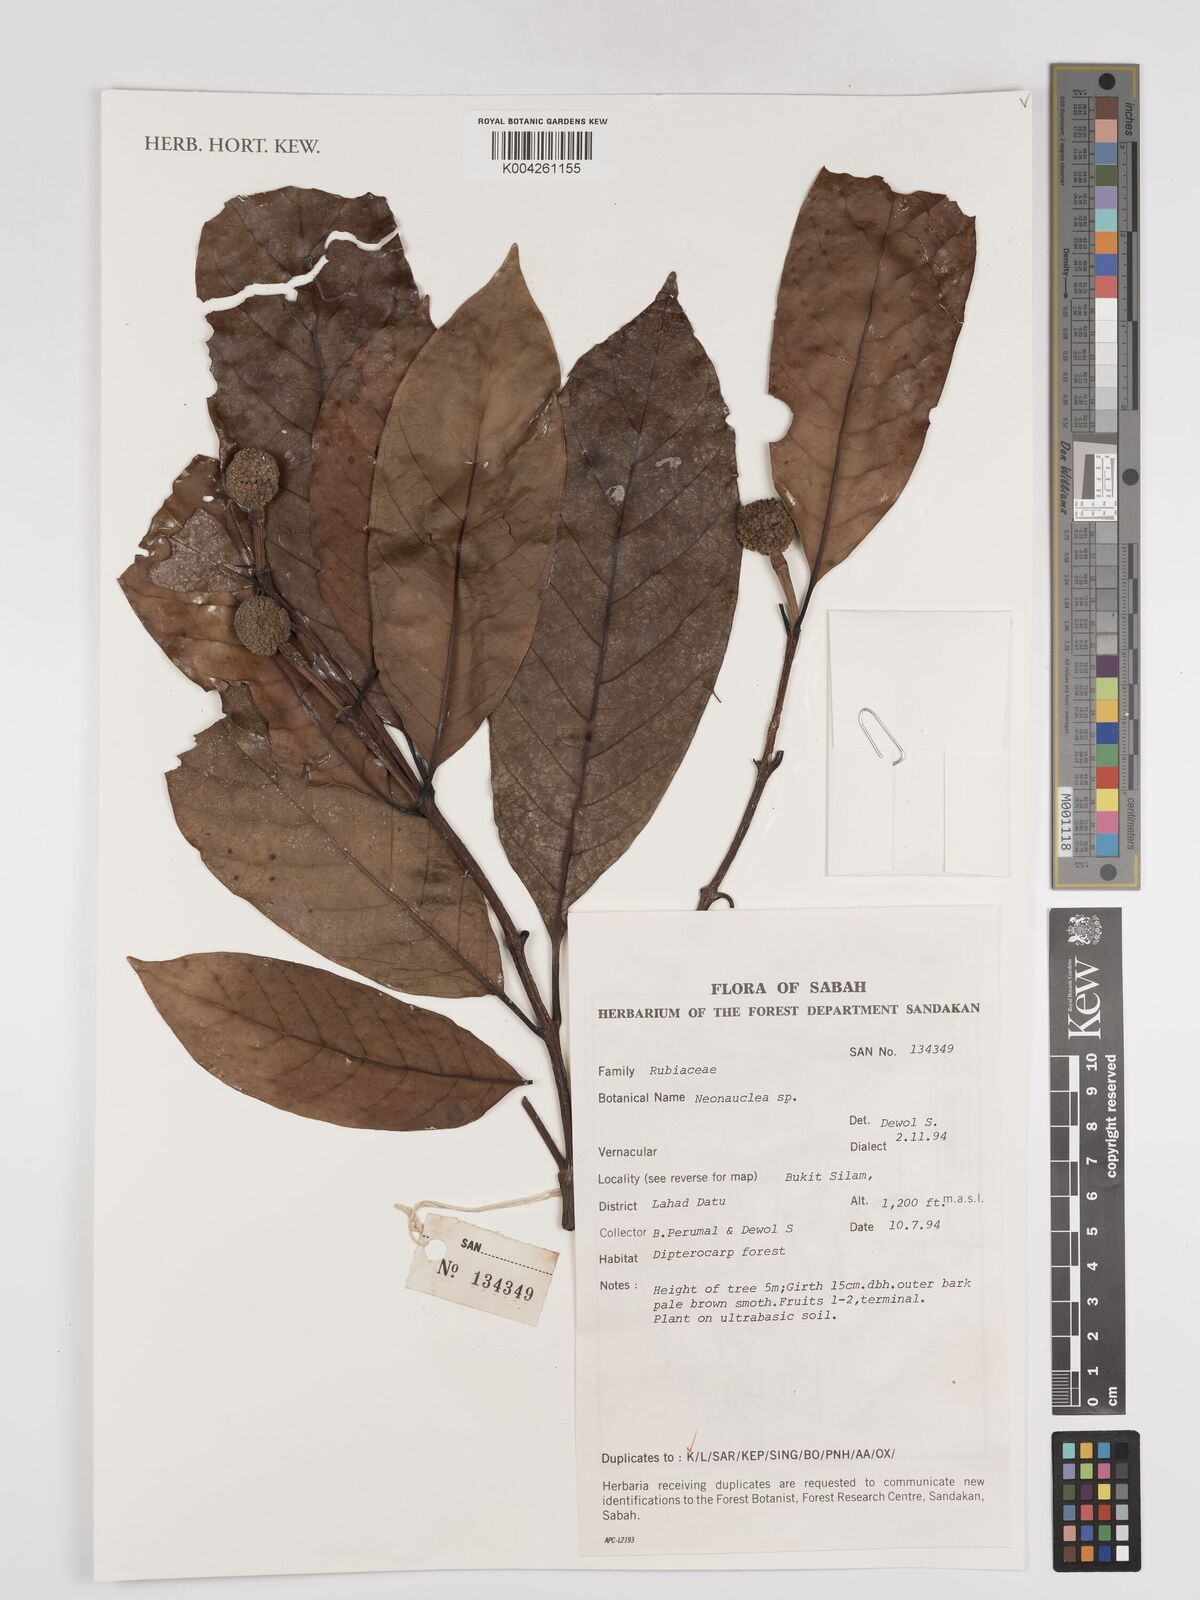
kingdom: Plantae
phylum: Tracheophyta
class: Magnoliopsida
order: Gentianales
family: Rubiaceae
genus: Neonauclea
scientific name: Neonauclea
